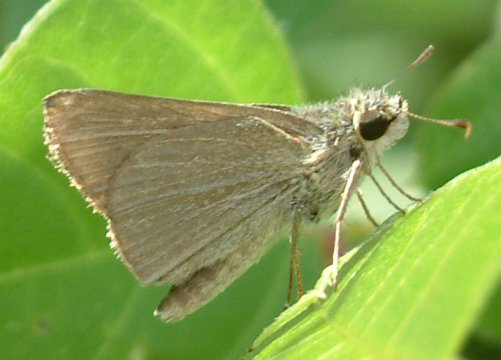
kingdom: Animalia
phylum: Arthropoda
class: Insecta
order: Lepidoptera
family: Hesperiidae
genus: Nastra
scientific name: Nastra lherminier
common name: Swarthy Skipper
